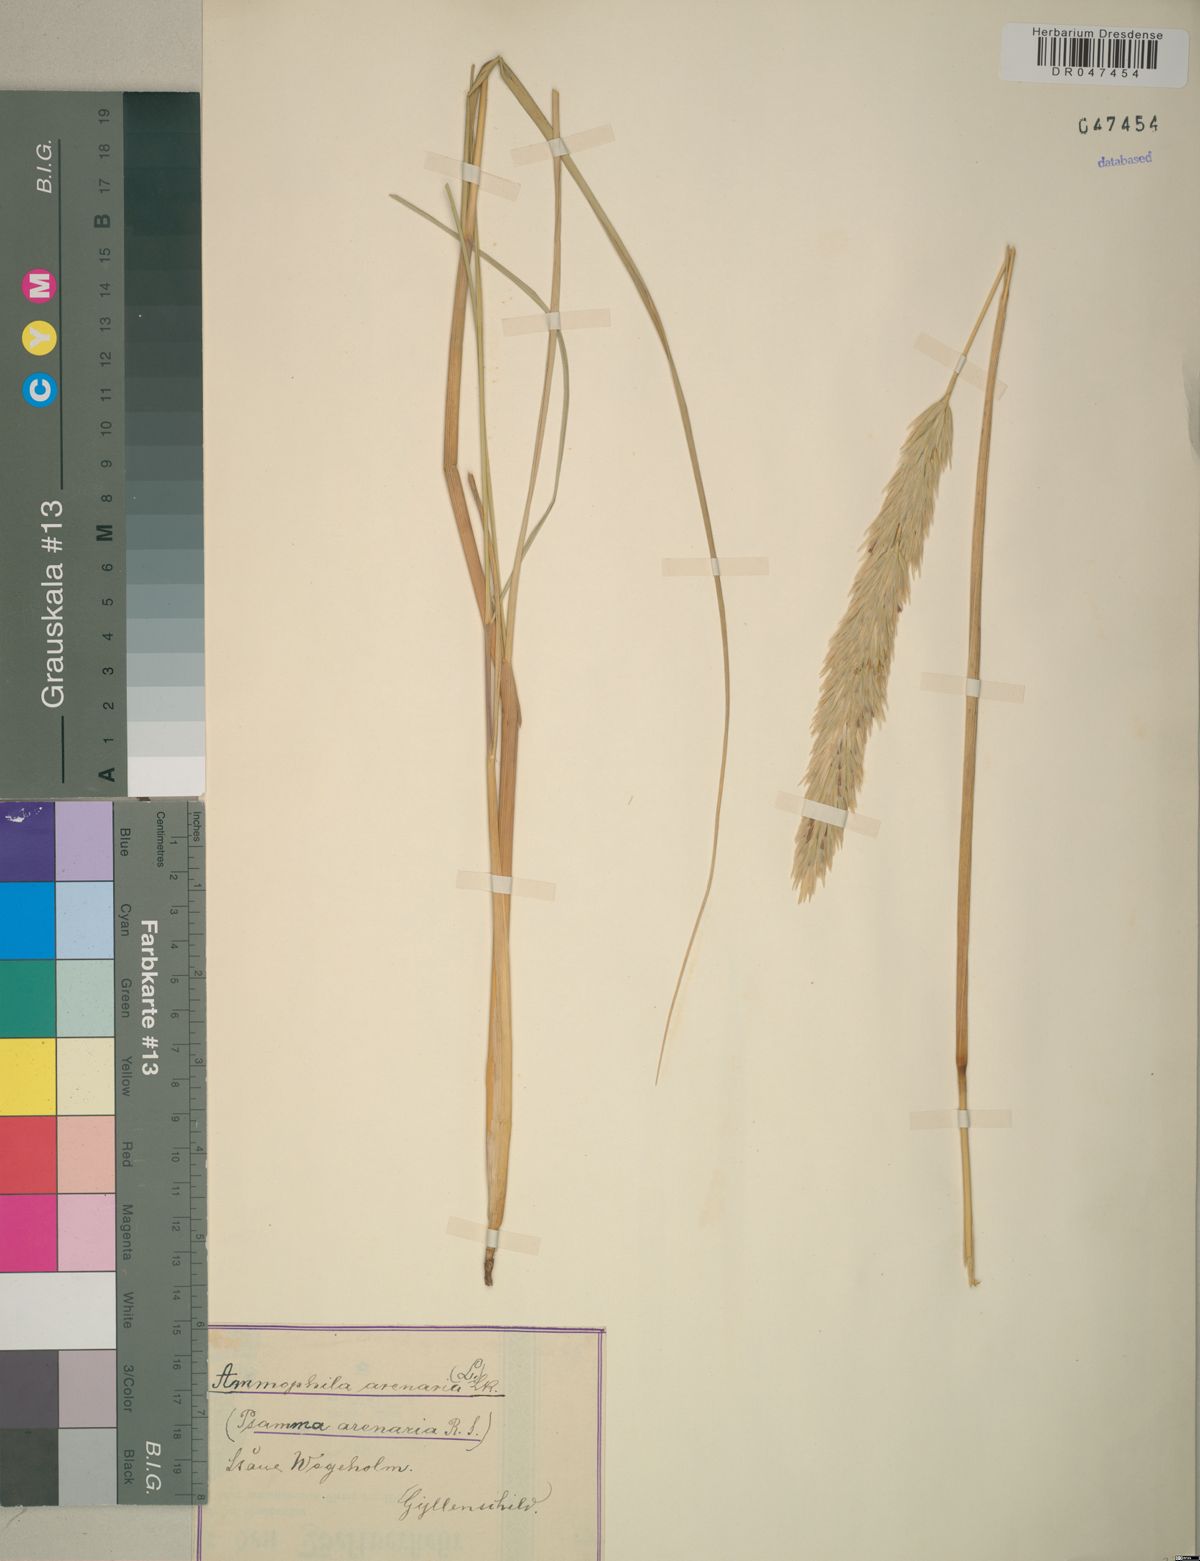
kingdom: Plantae
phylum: Tracheophyta
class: Liliopsida
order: Poales
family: Poaceae
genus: Calamagrostis
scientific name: Calamagrostis arenaria
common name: European beachgrass
